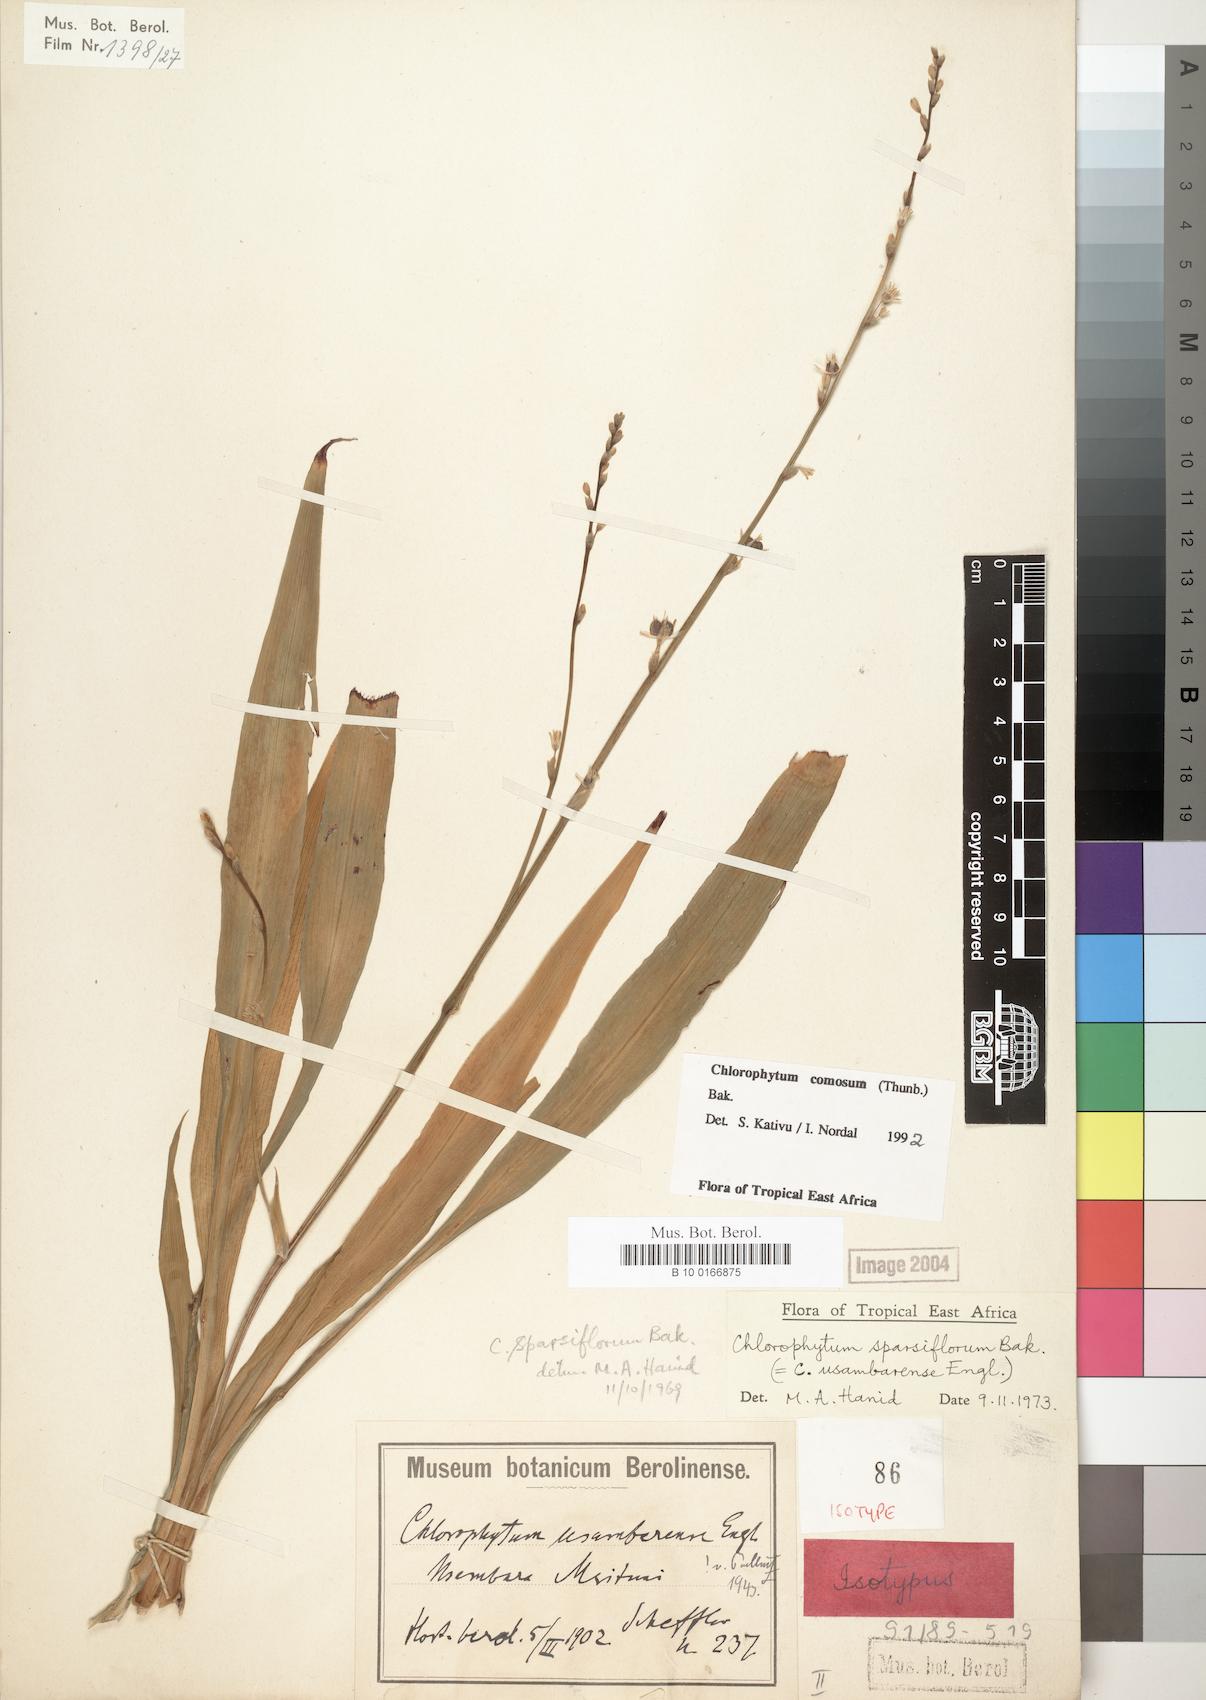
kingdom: Plantae
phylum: Tracheophyta
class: Liliopsida
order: Asparagales
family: Asparagaceae
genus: Chlorophytum
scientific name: Chlorophytum comosum
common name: Spider plant
